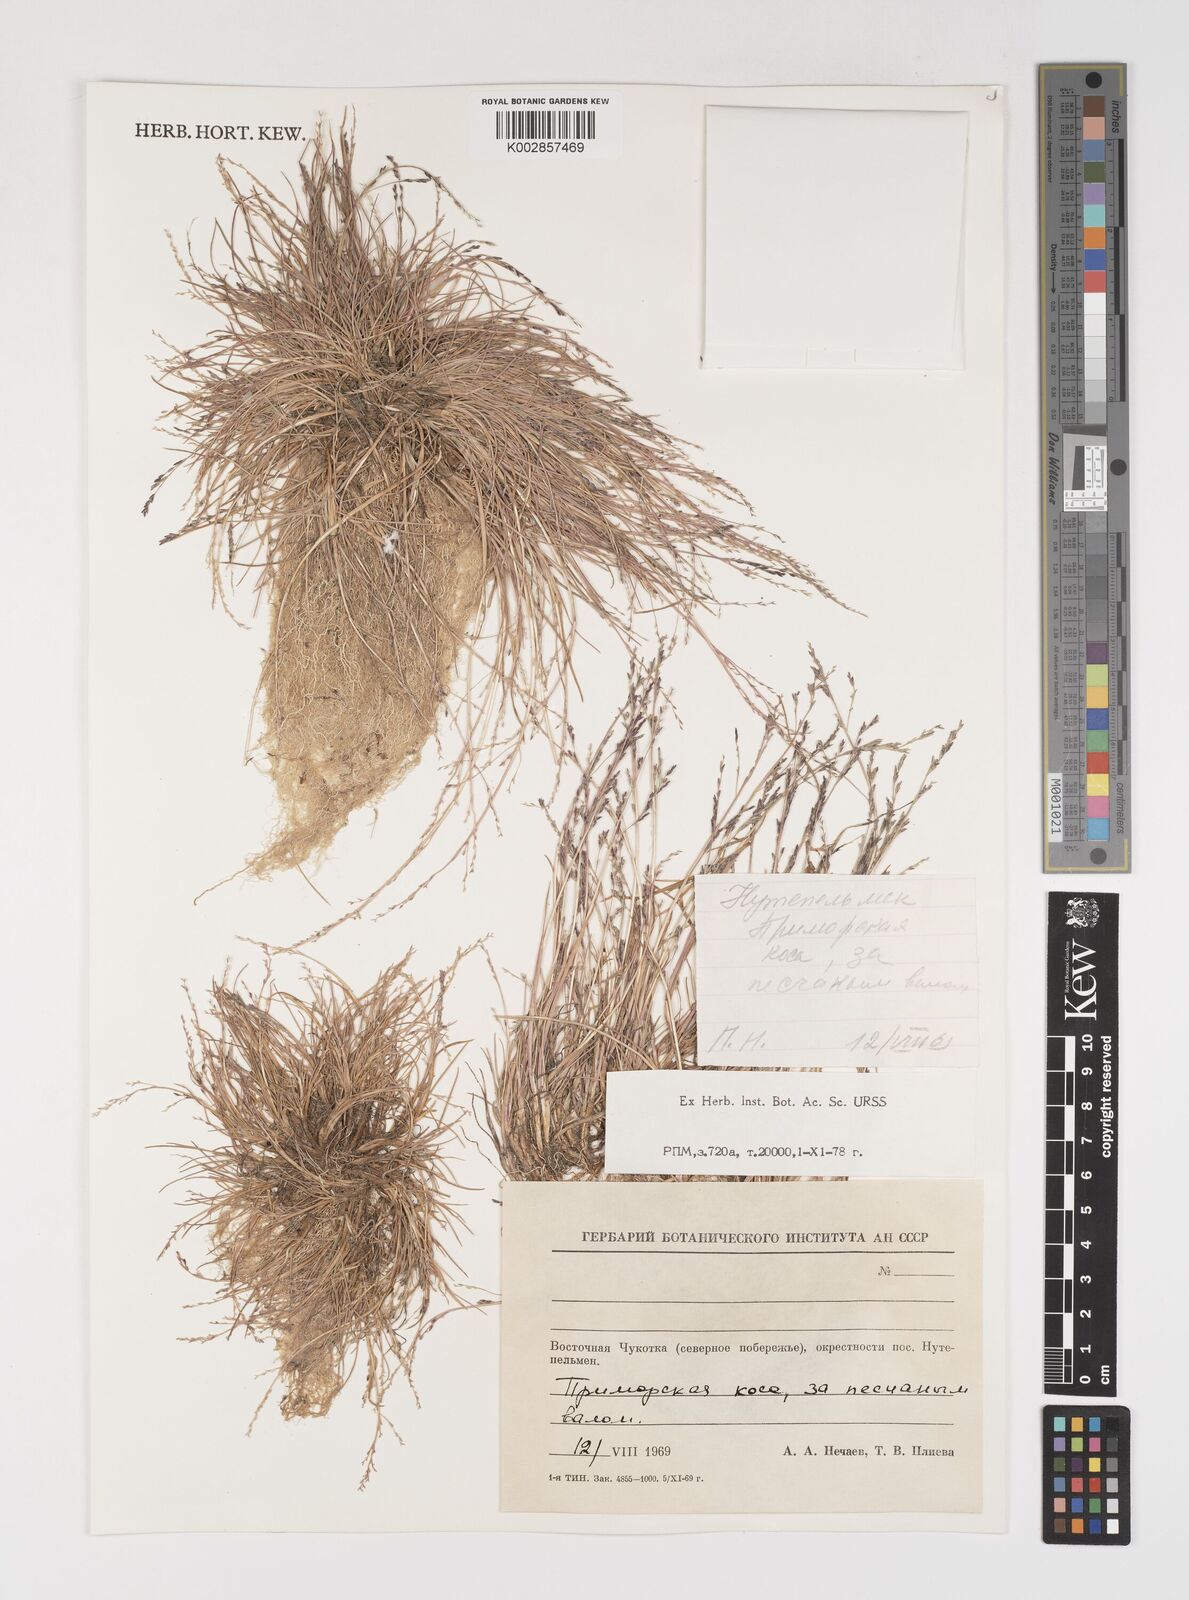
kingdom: Plantae
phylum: Tracheophyta
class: Liliopsida
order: Poales
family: Poaceae
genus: Puccinellia
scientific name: Puccinellia
